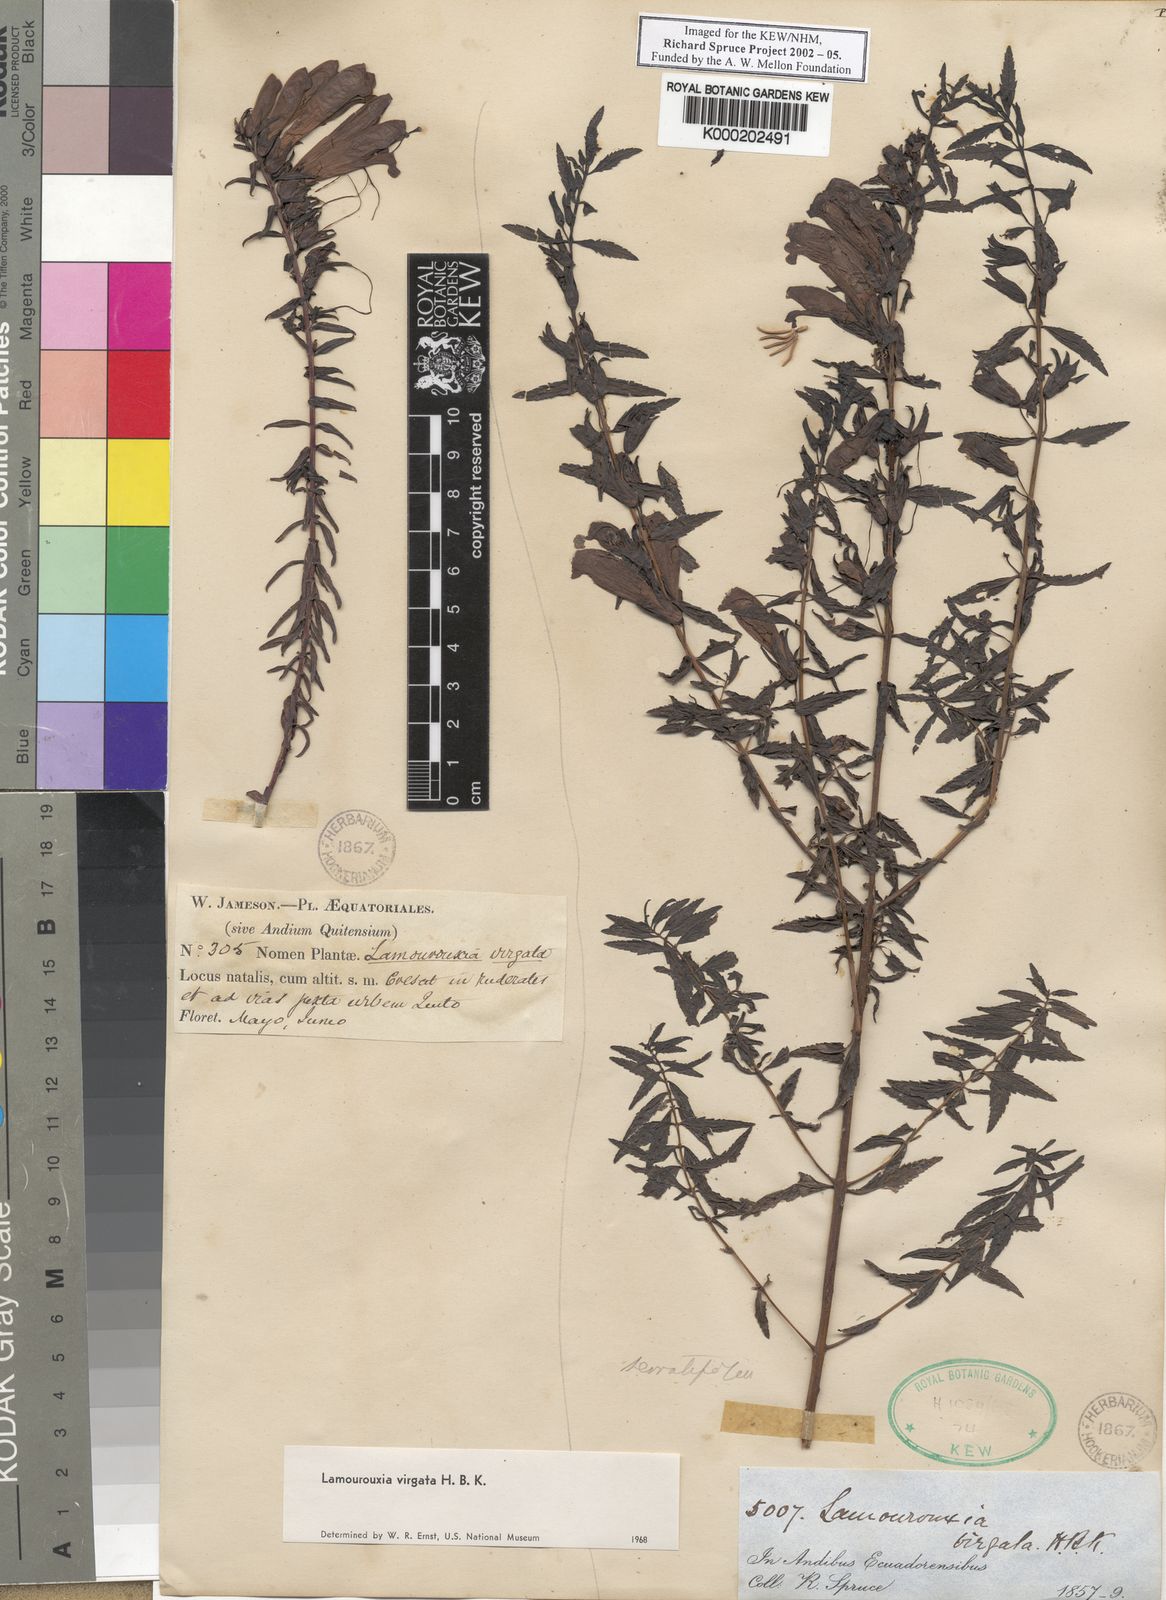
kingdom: Plantae
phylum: Tracheophyta
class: Magnoliopsida
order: Lamiales
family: Orobanchaceae
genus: Lamourouxia
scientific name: Lamourouxia virgata
